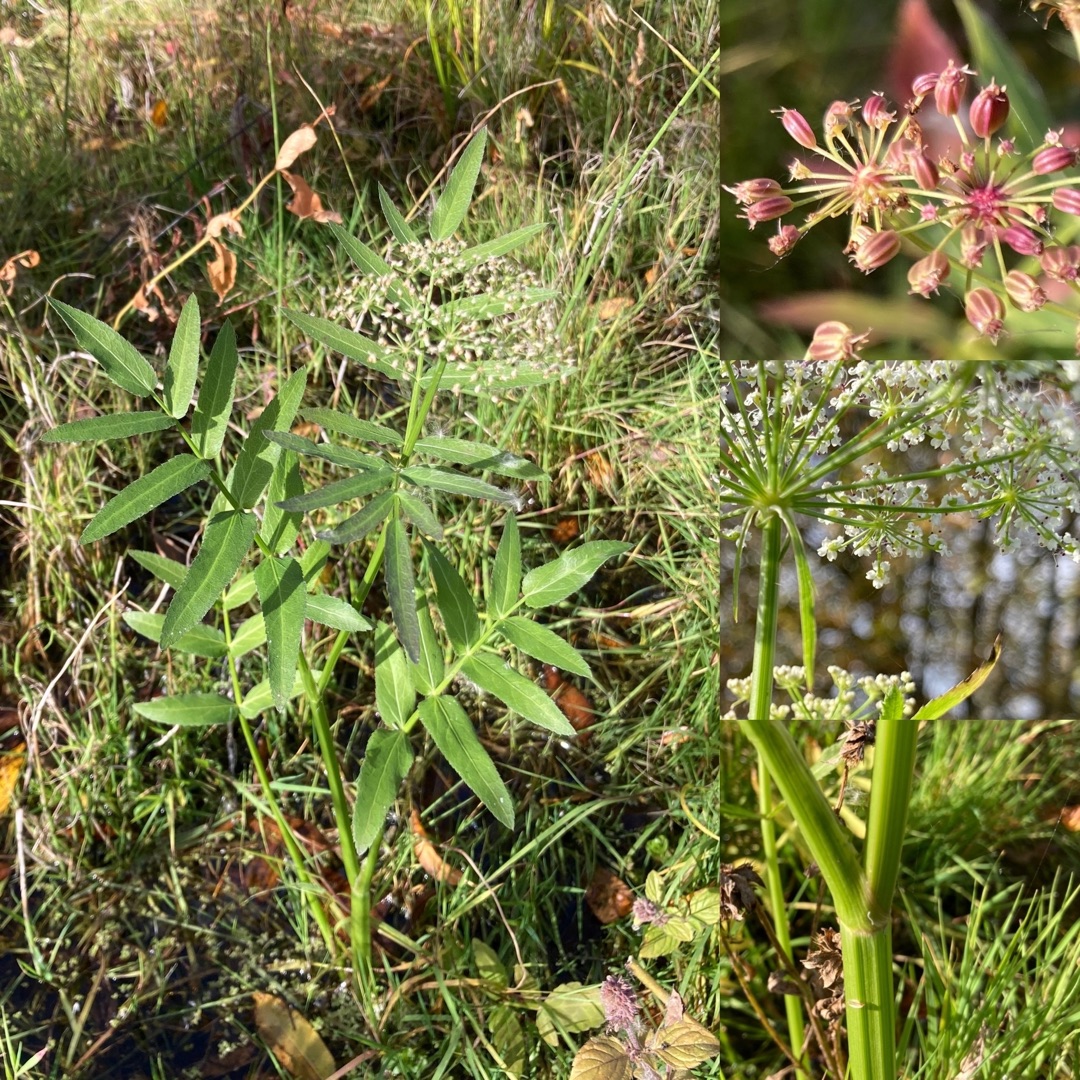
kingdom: Plantae
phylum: Tracheophyta
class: Magnoliopsida
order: Apiales
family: Apiaceae
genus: Sium
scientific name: Sium latifolium
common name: Bredbladet mærke
